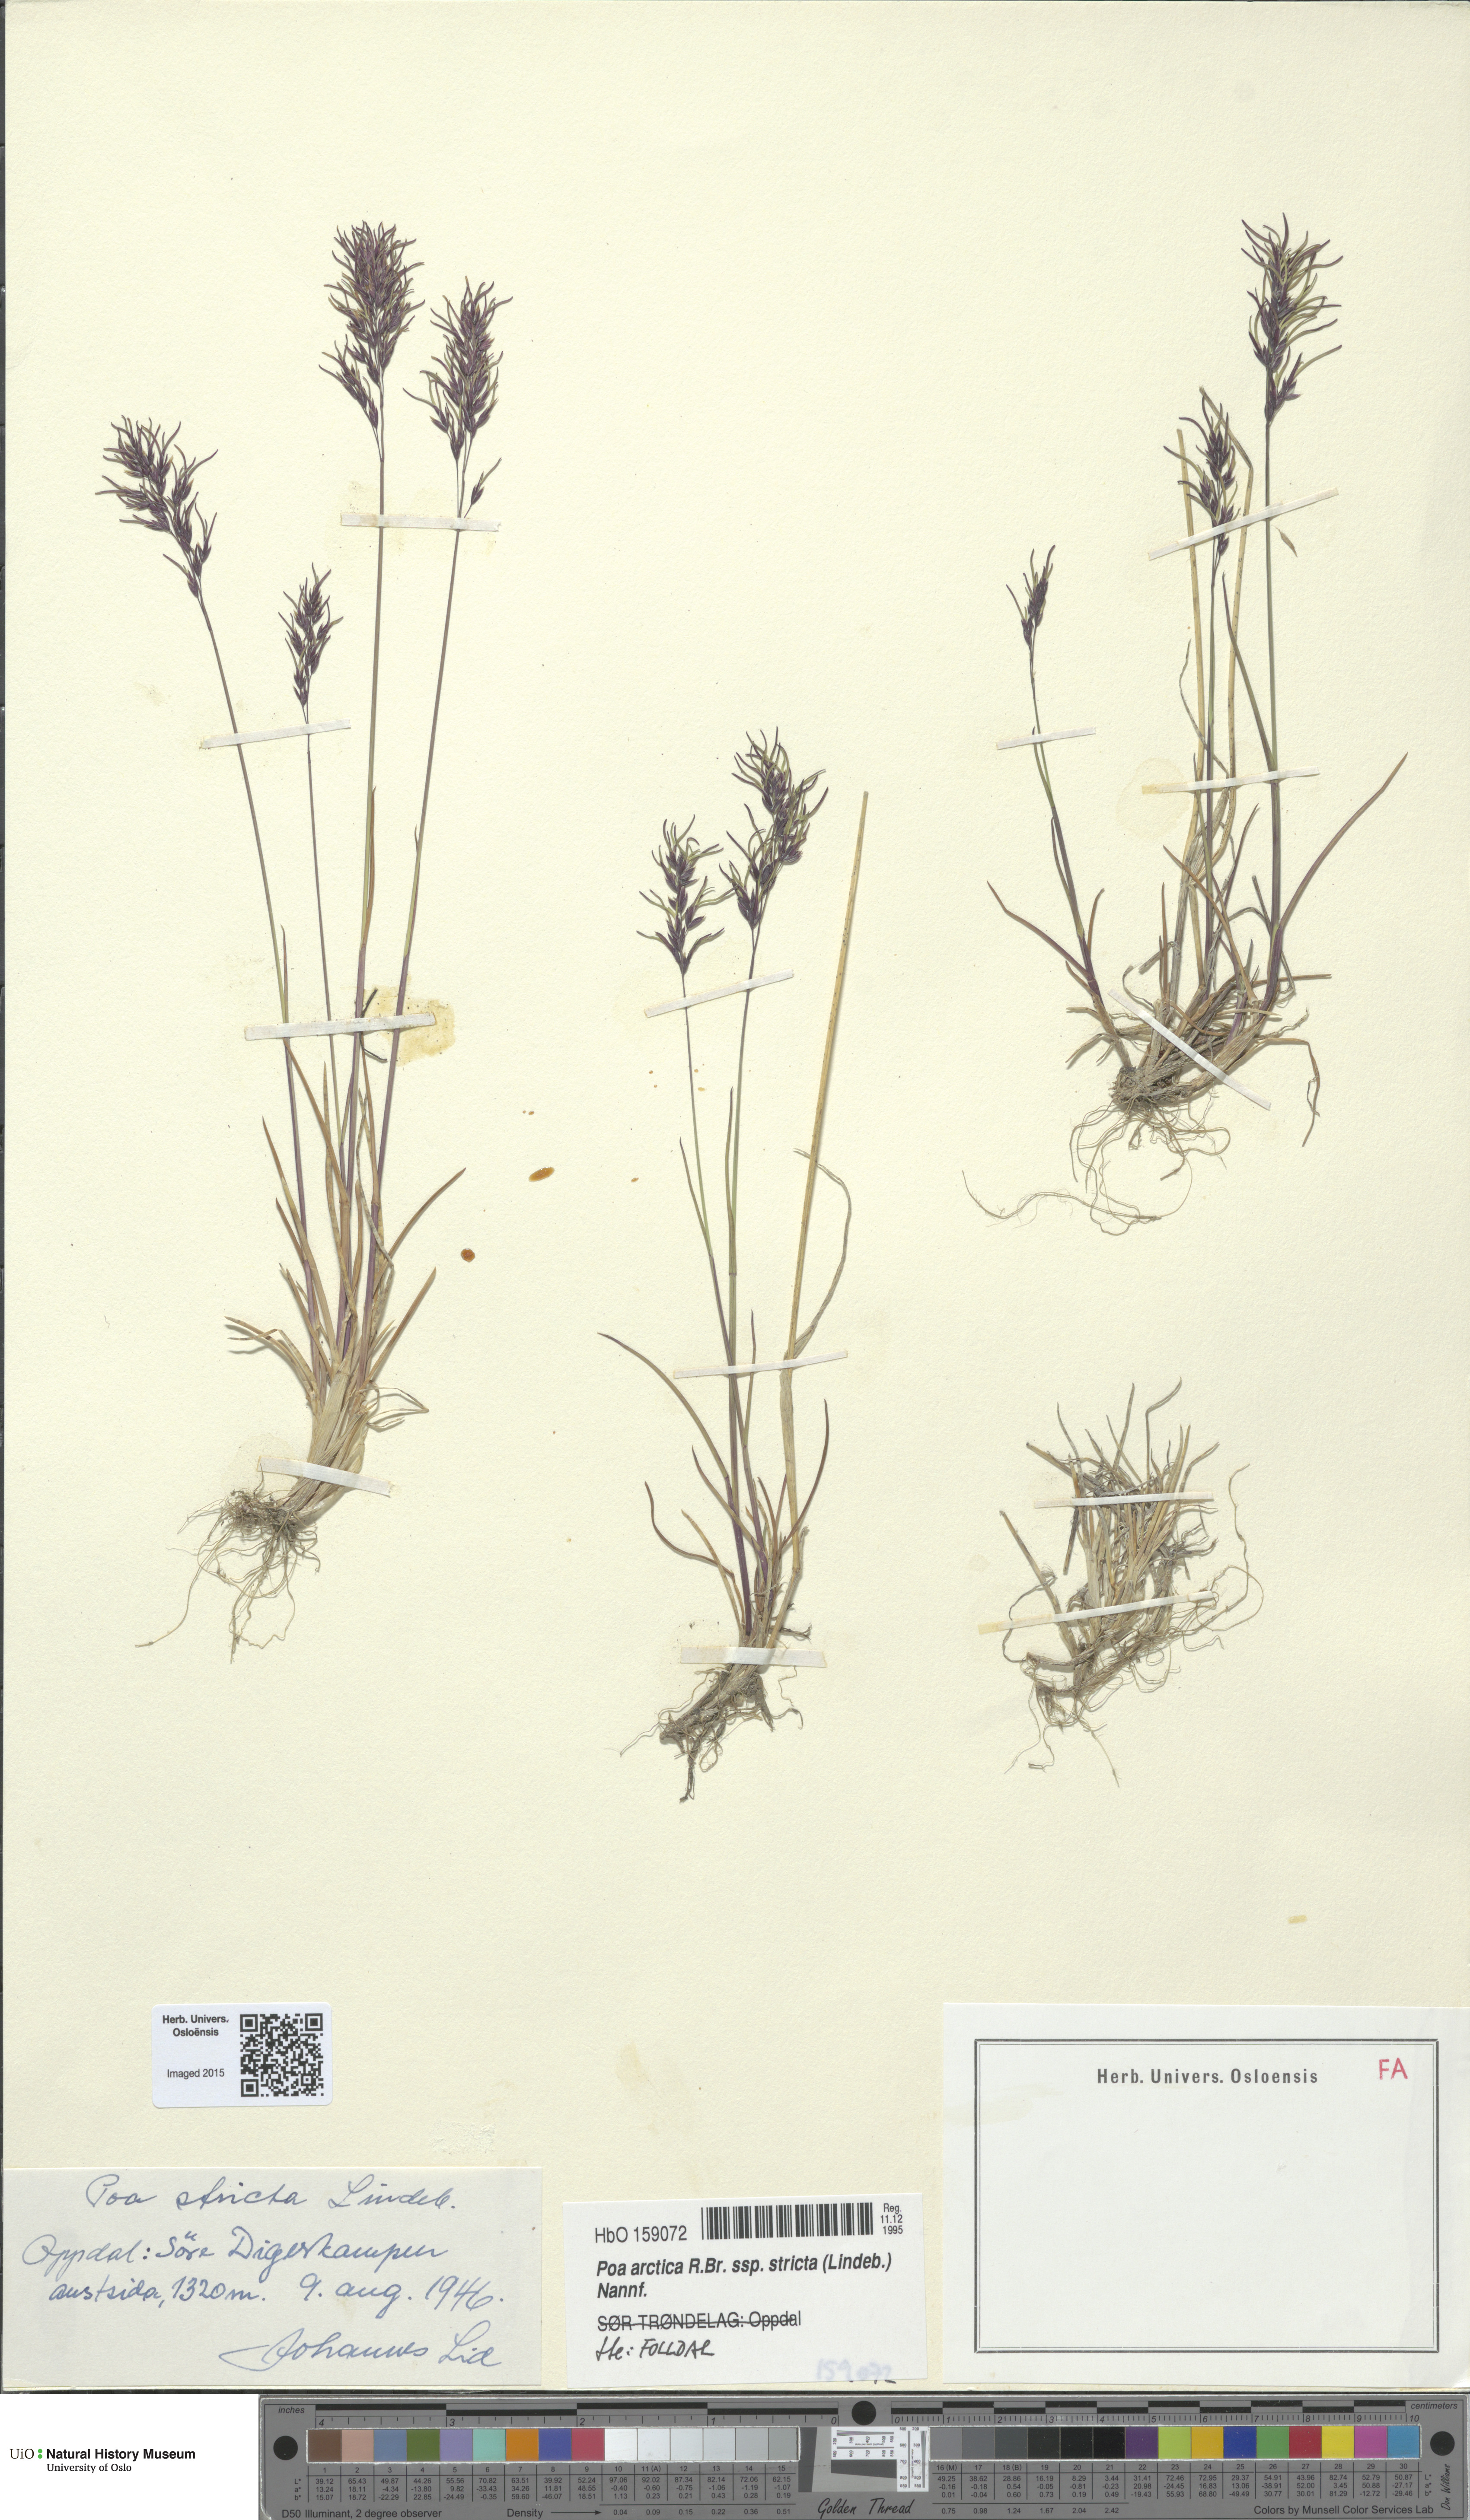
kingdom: Plantae
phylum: Tracheophyta
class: Liliopsida
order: Poales
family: Poaceae
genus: Poa
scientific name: Poa lindebergii
